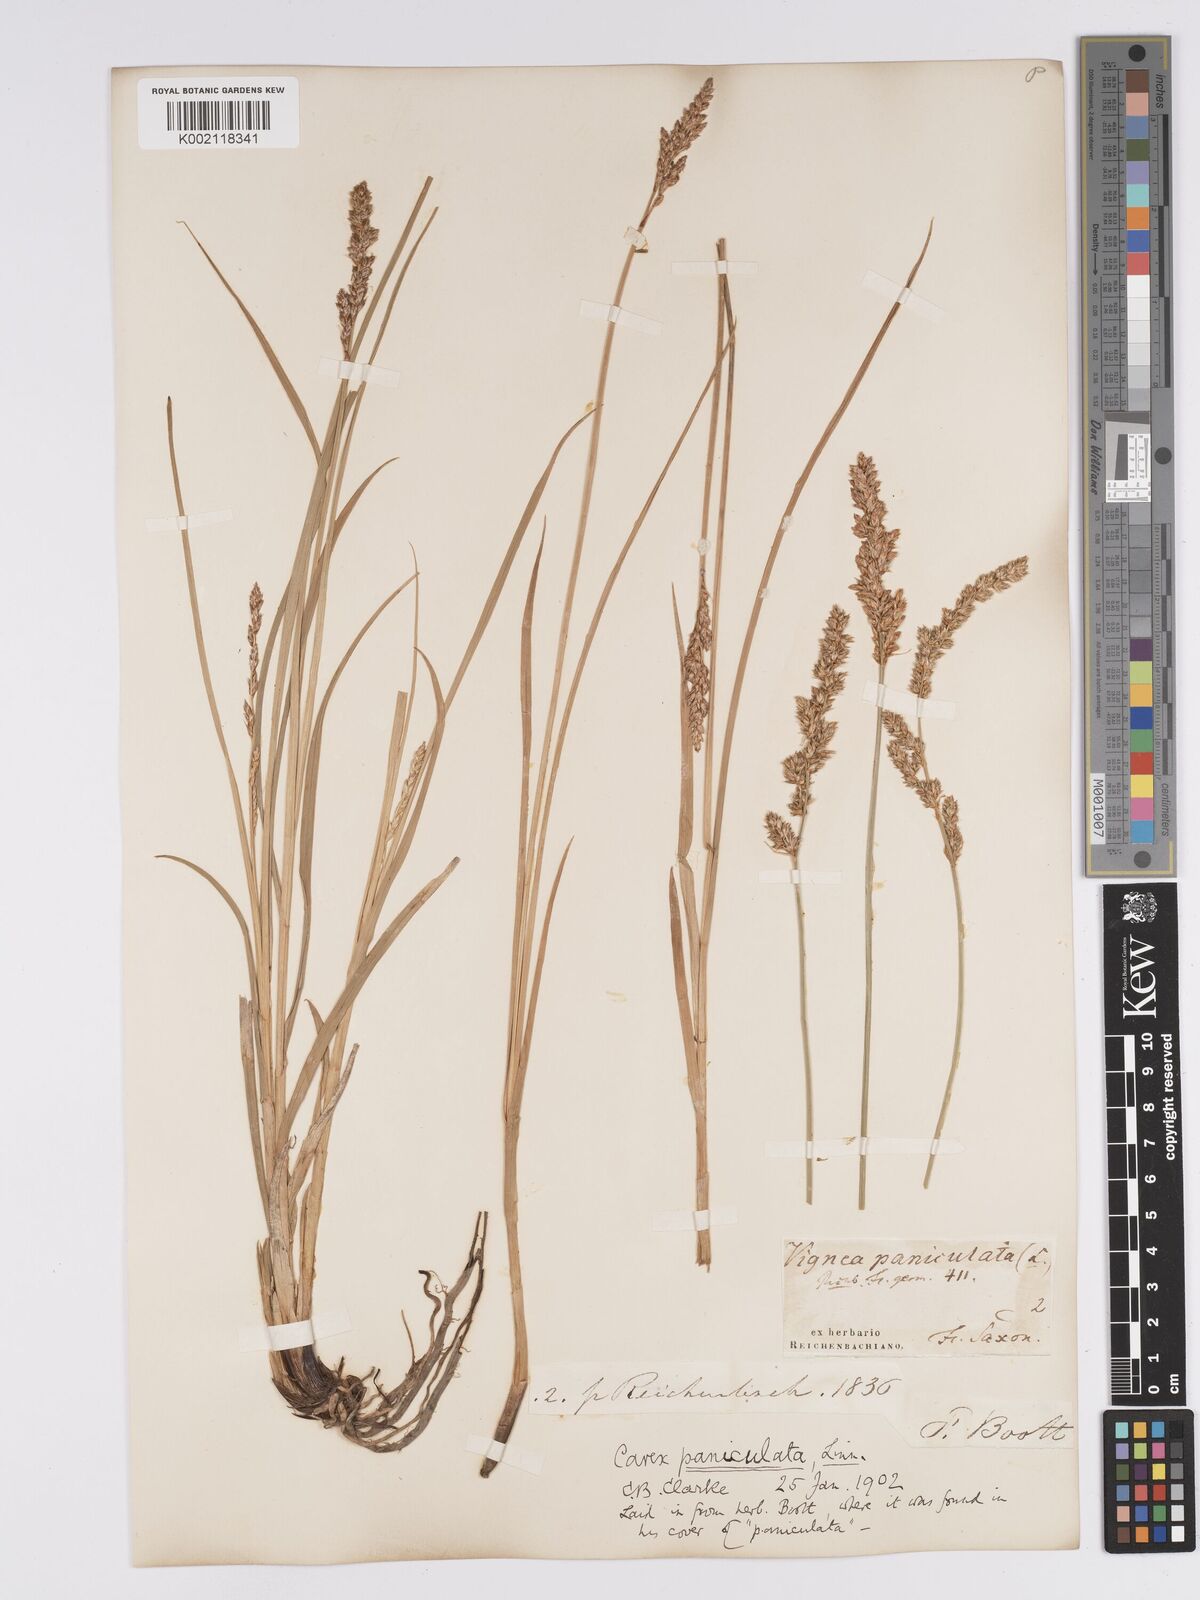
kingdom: Plantae
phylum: Tracheophyta
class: Liliopsida
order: Poales
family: Cyperaceae
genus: Carex
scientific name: Carex paniculata
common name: Greater tussock-sedge
